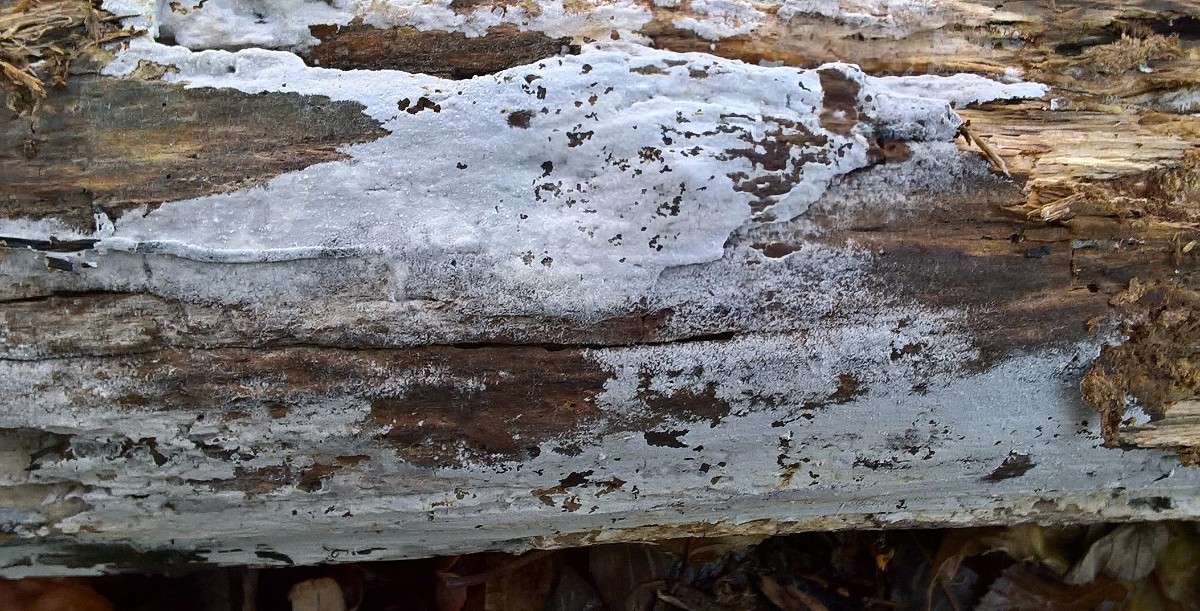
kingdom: Fungi
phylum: Basidiomycota
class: Agaricomycetes
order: Corticiales
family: Corticiaceae
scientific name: Corticiaceae
